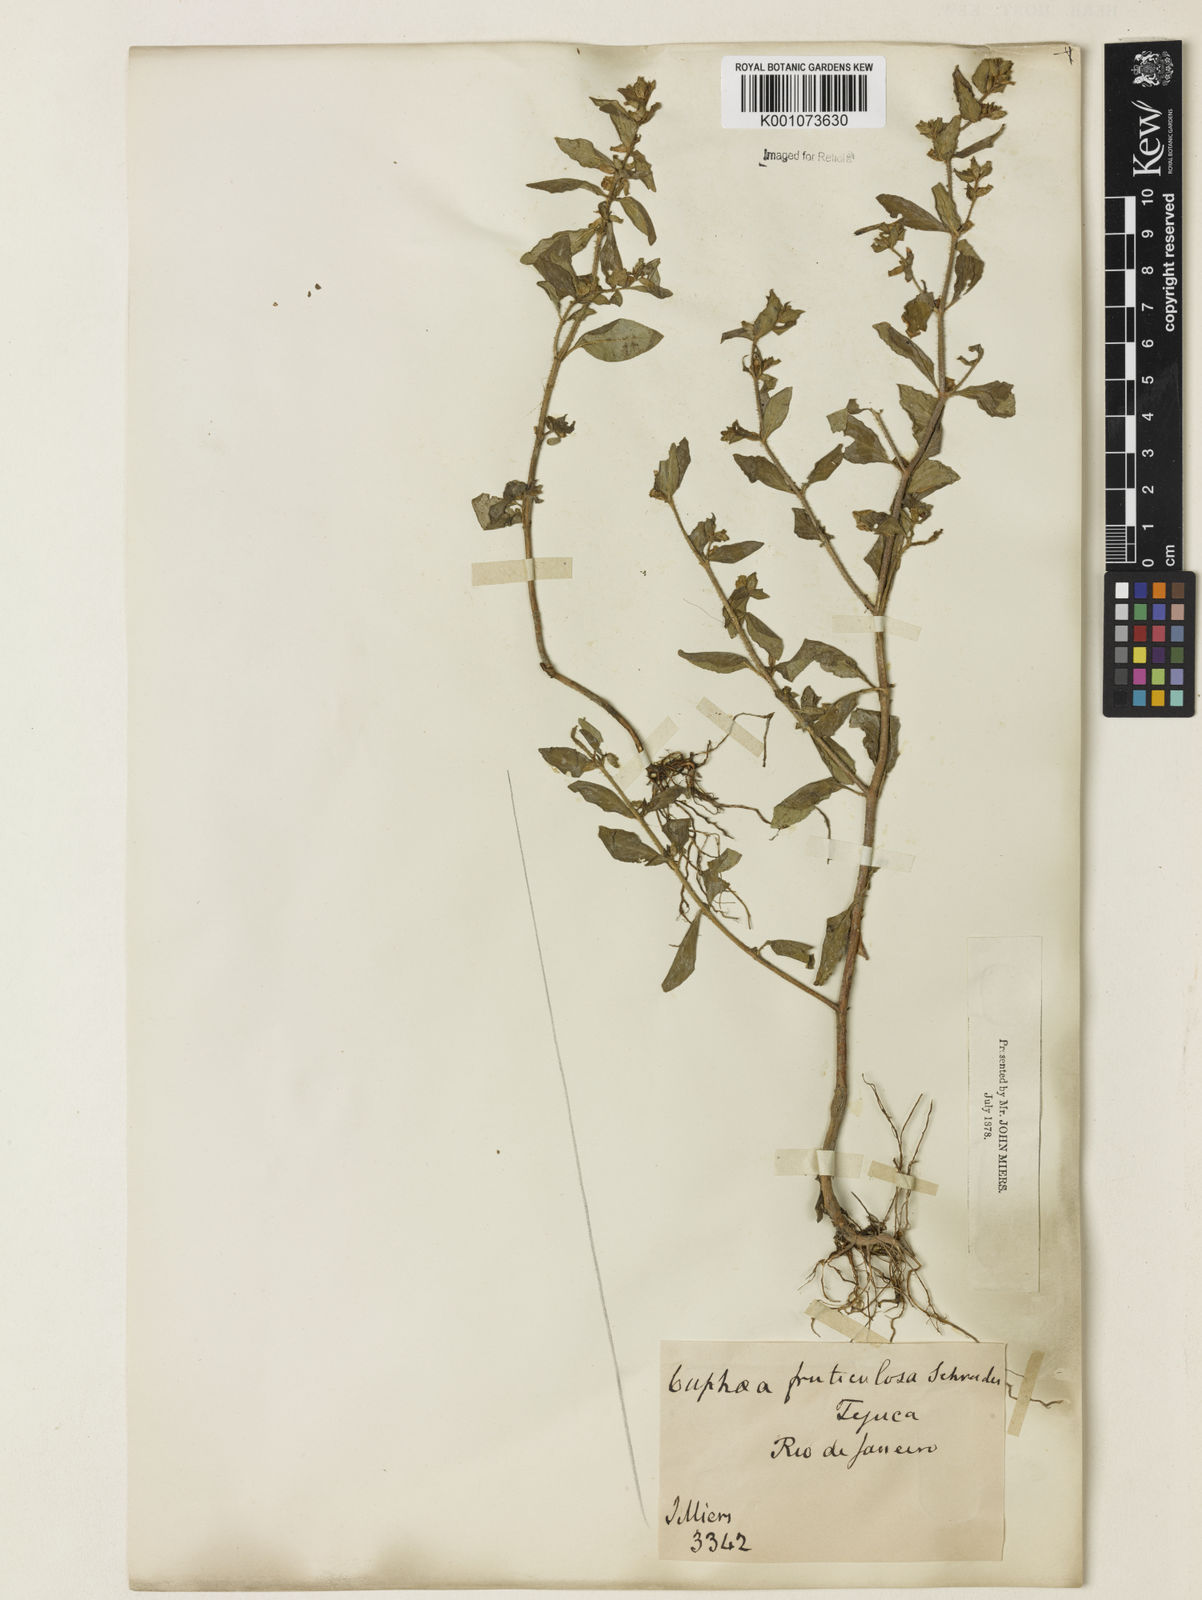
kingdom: Plantae
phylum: Tracheophyta
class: Magnoliopsida
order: Myrtales
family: Lythraceae
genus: Cuphea
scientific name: Cuphea racemosa
